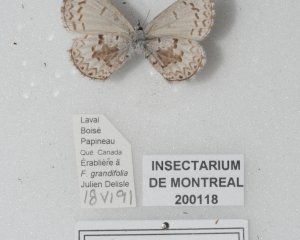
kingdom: Animalia
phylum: Arthropoda
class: Insecta
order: Lepidoptera
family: Lycaenidae
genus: Celastrina
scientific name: Celastrina lucia
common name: Northern Spring Azure
